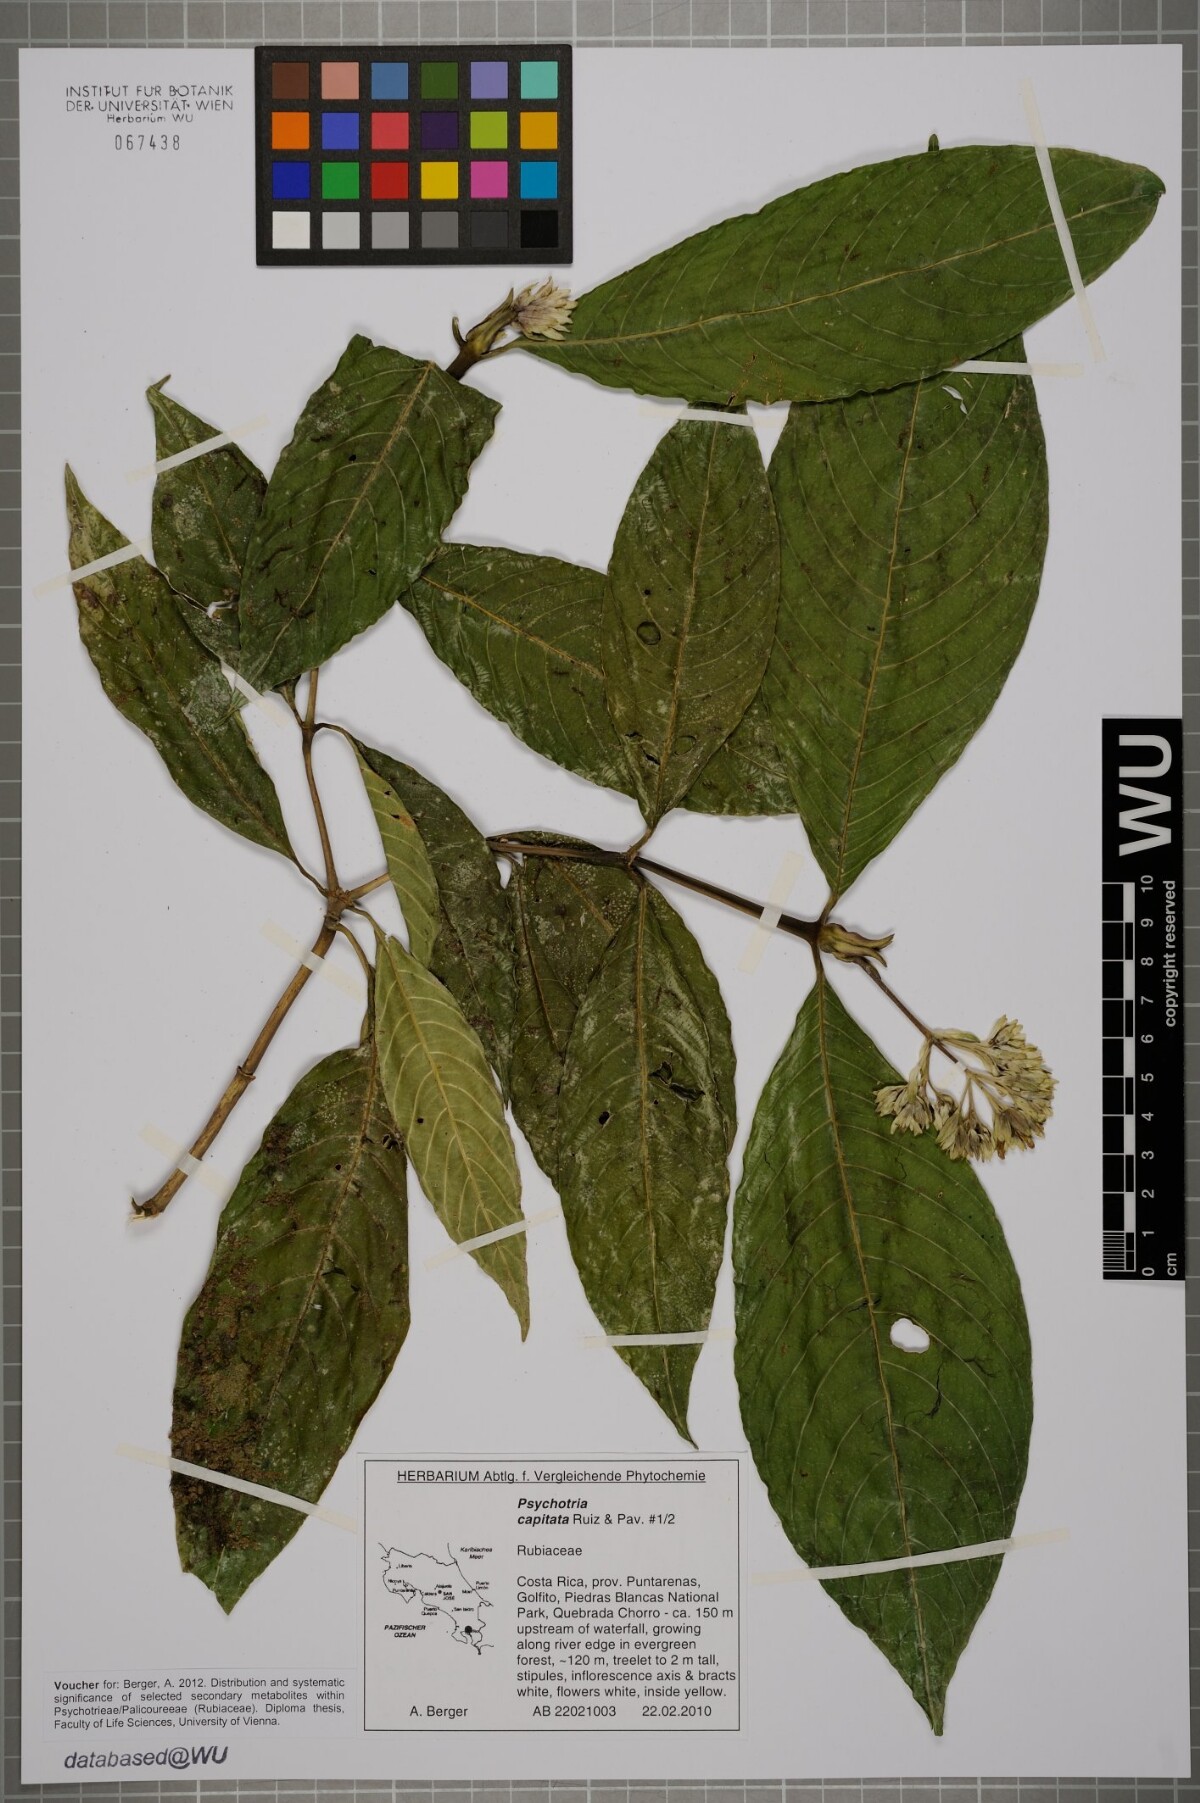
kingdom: Plantae
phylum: Tracheophyta
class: Magnoliopsida
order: Gentianales
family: Rubiaceae
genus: Palicourea
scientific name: Palicourea violacea
